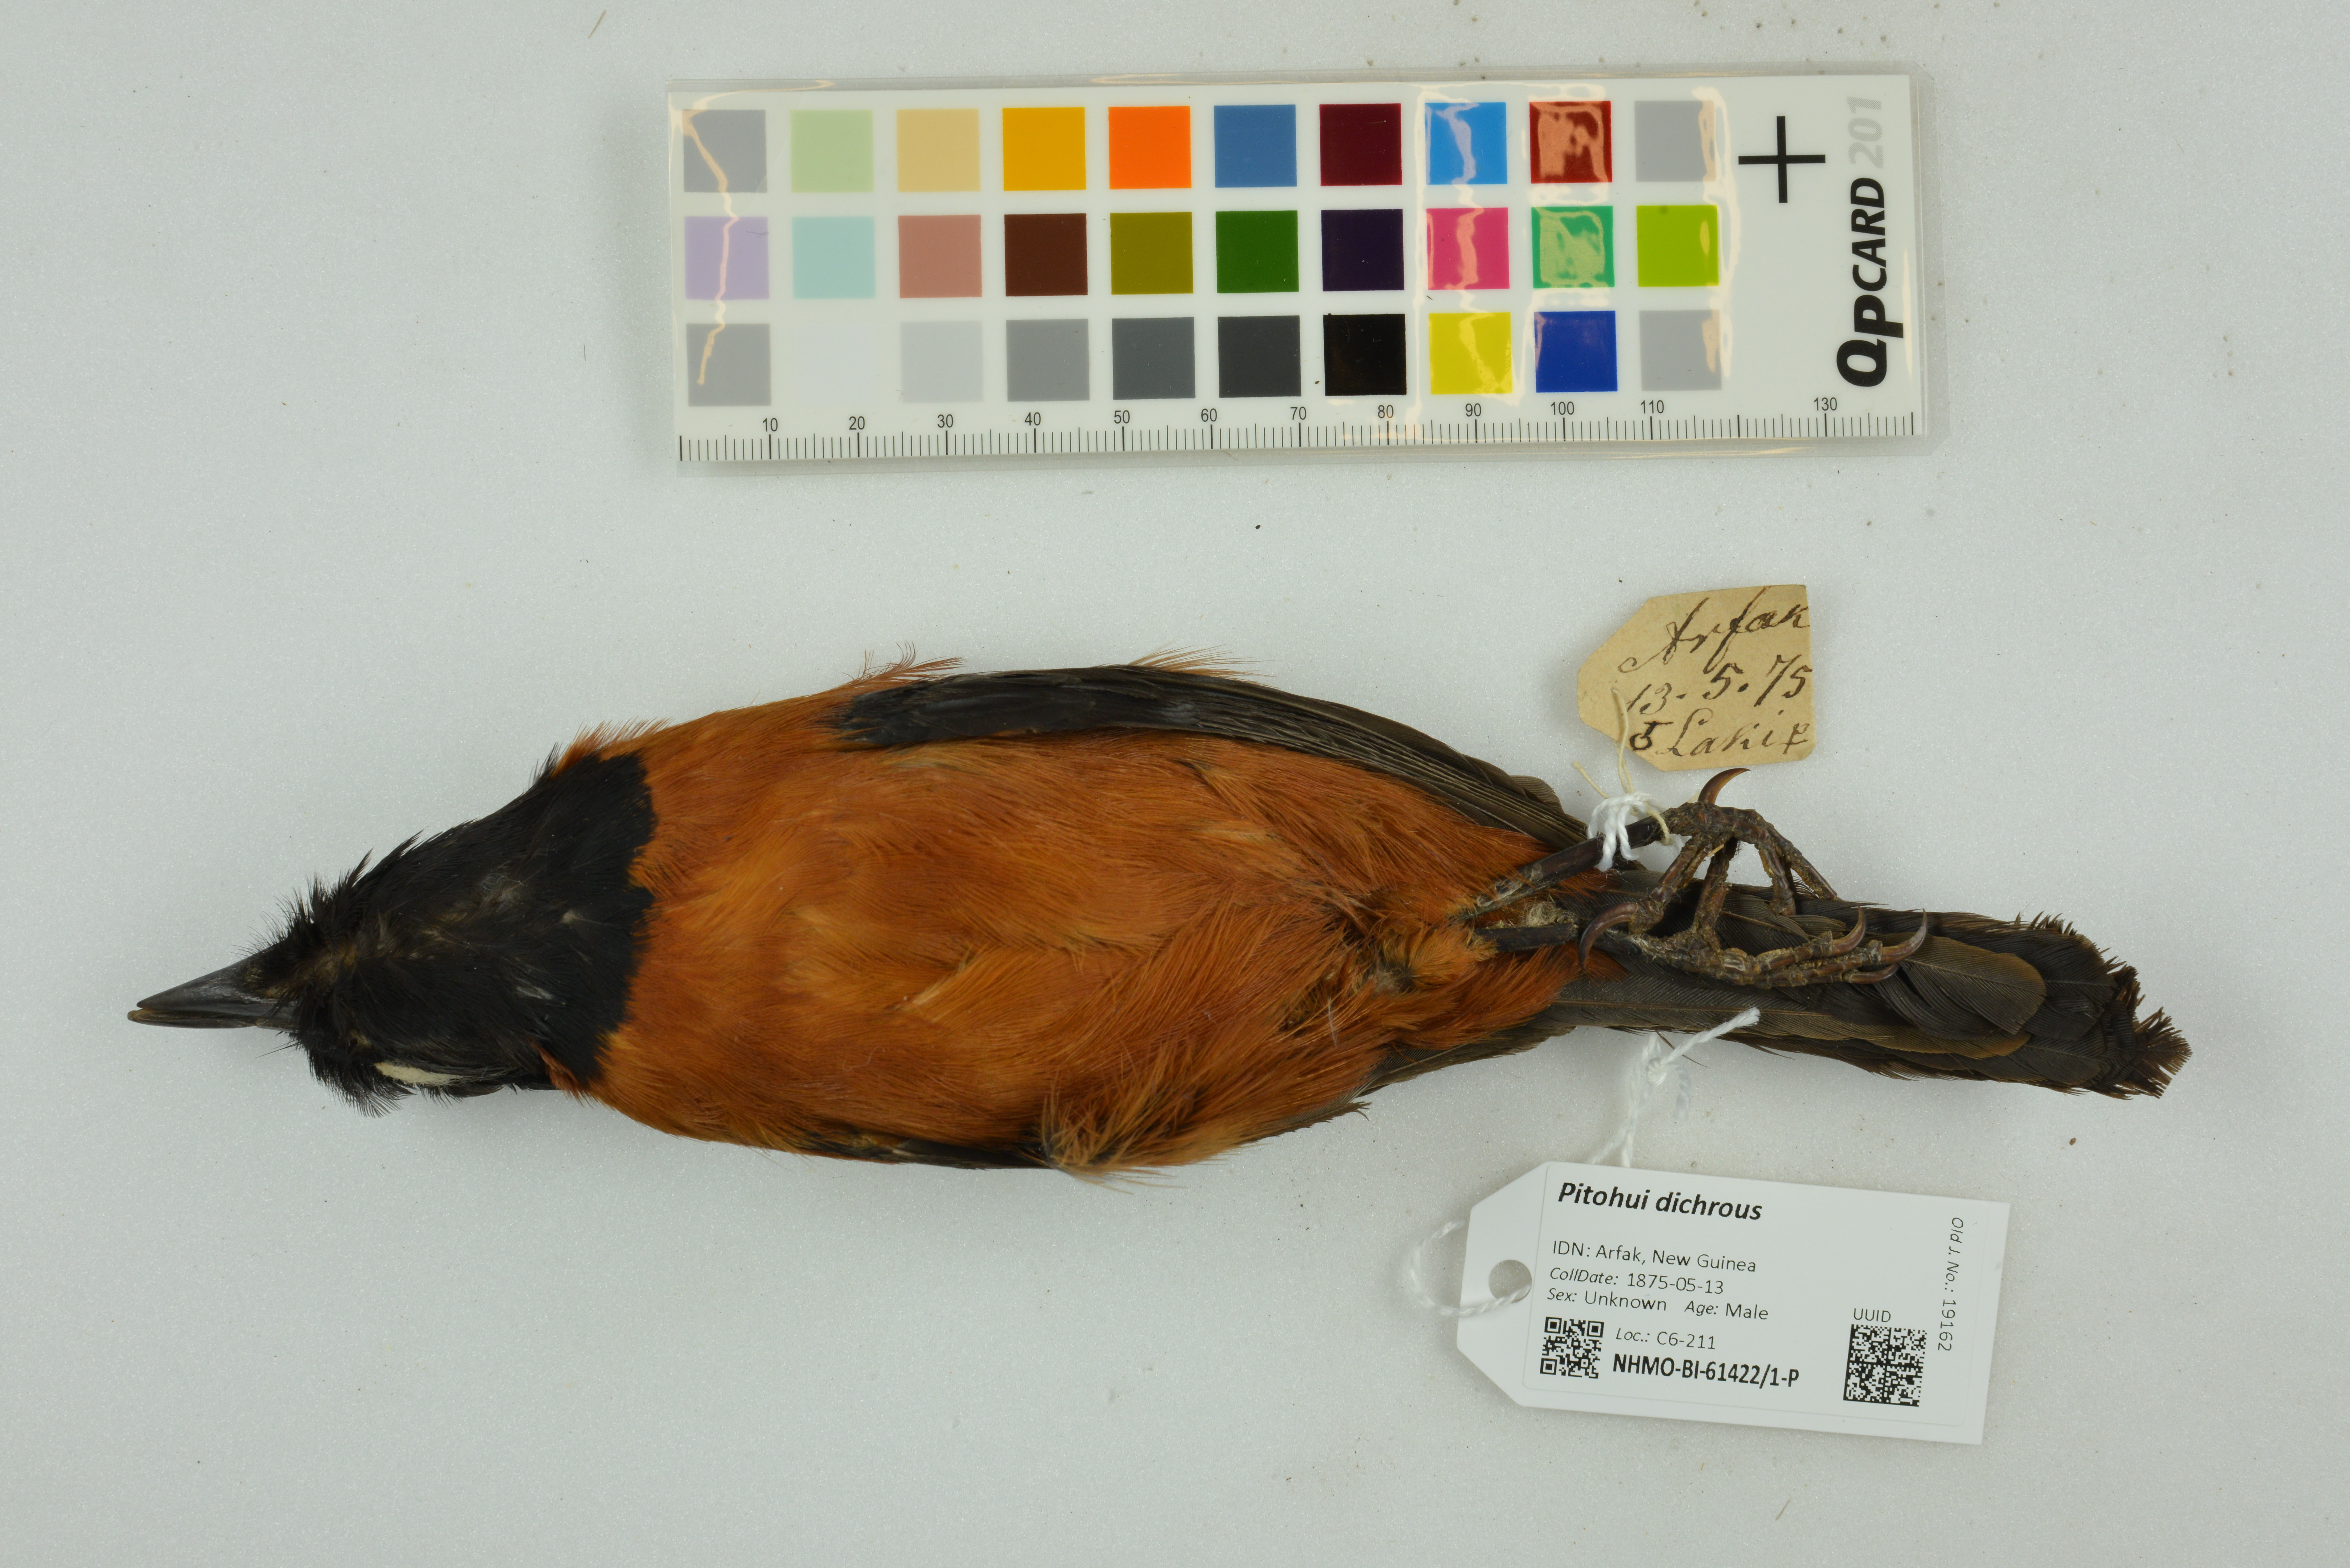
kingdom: Animalia
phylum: Chordata
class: Aves
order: Passeriformes
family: Oriolidae
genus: Pitohui
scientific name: Pitohui dichrous
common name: Hooded pitohui
